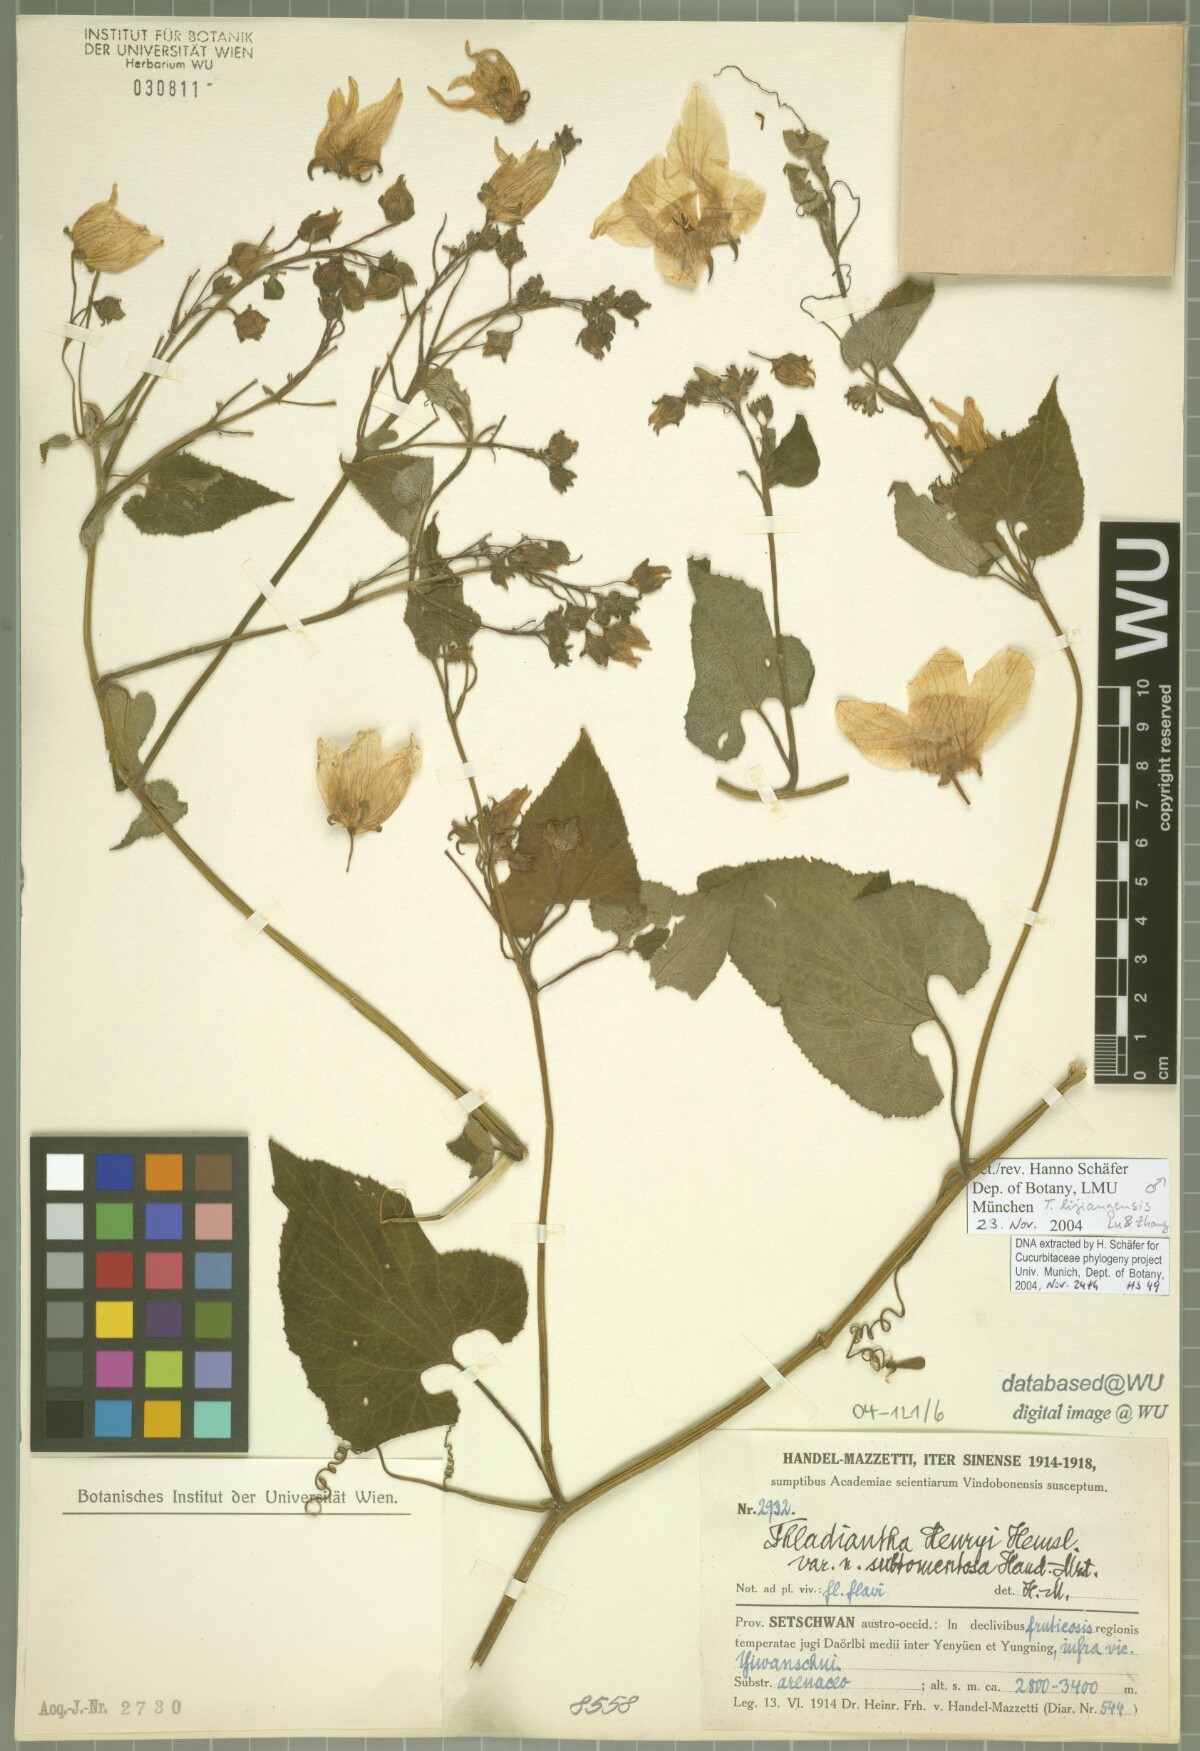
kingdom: Plantae
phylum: Tracheophyta
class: Magnoliopsida
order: Cucurbitales
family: Cucurbitaceae
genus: Thladiantha
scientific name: Thladiantha lijiangensis
